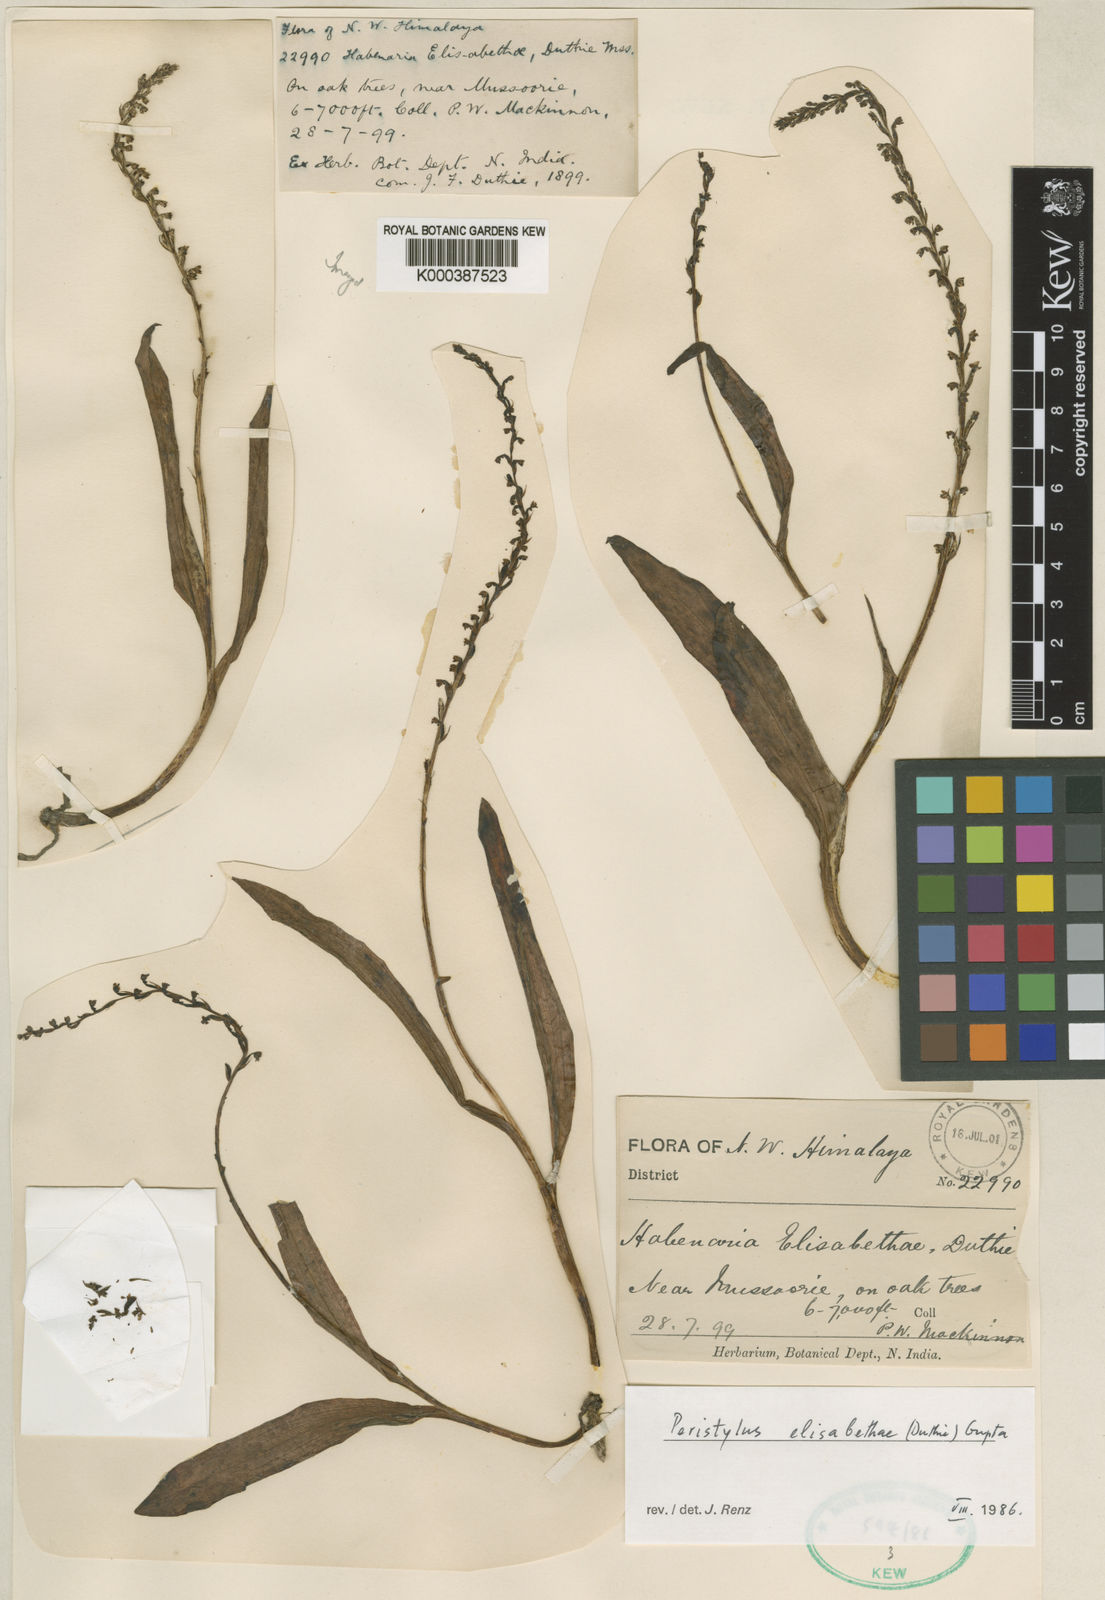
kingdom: Plantae
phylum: Tracheophyta
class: Liliopsida
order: Asparagales
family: Orchidaceae
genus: Herminium
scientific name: Herminium elisabethae
